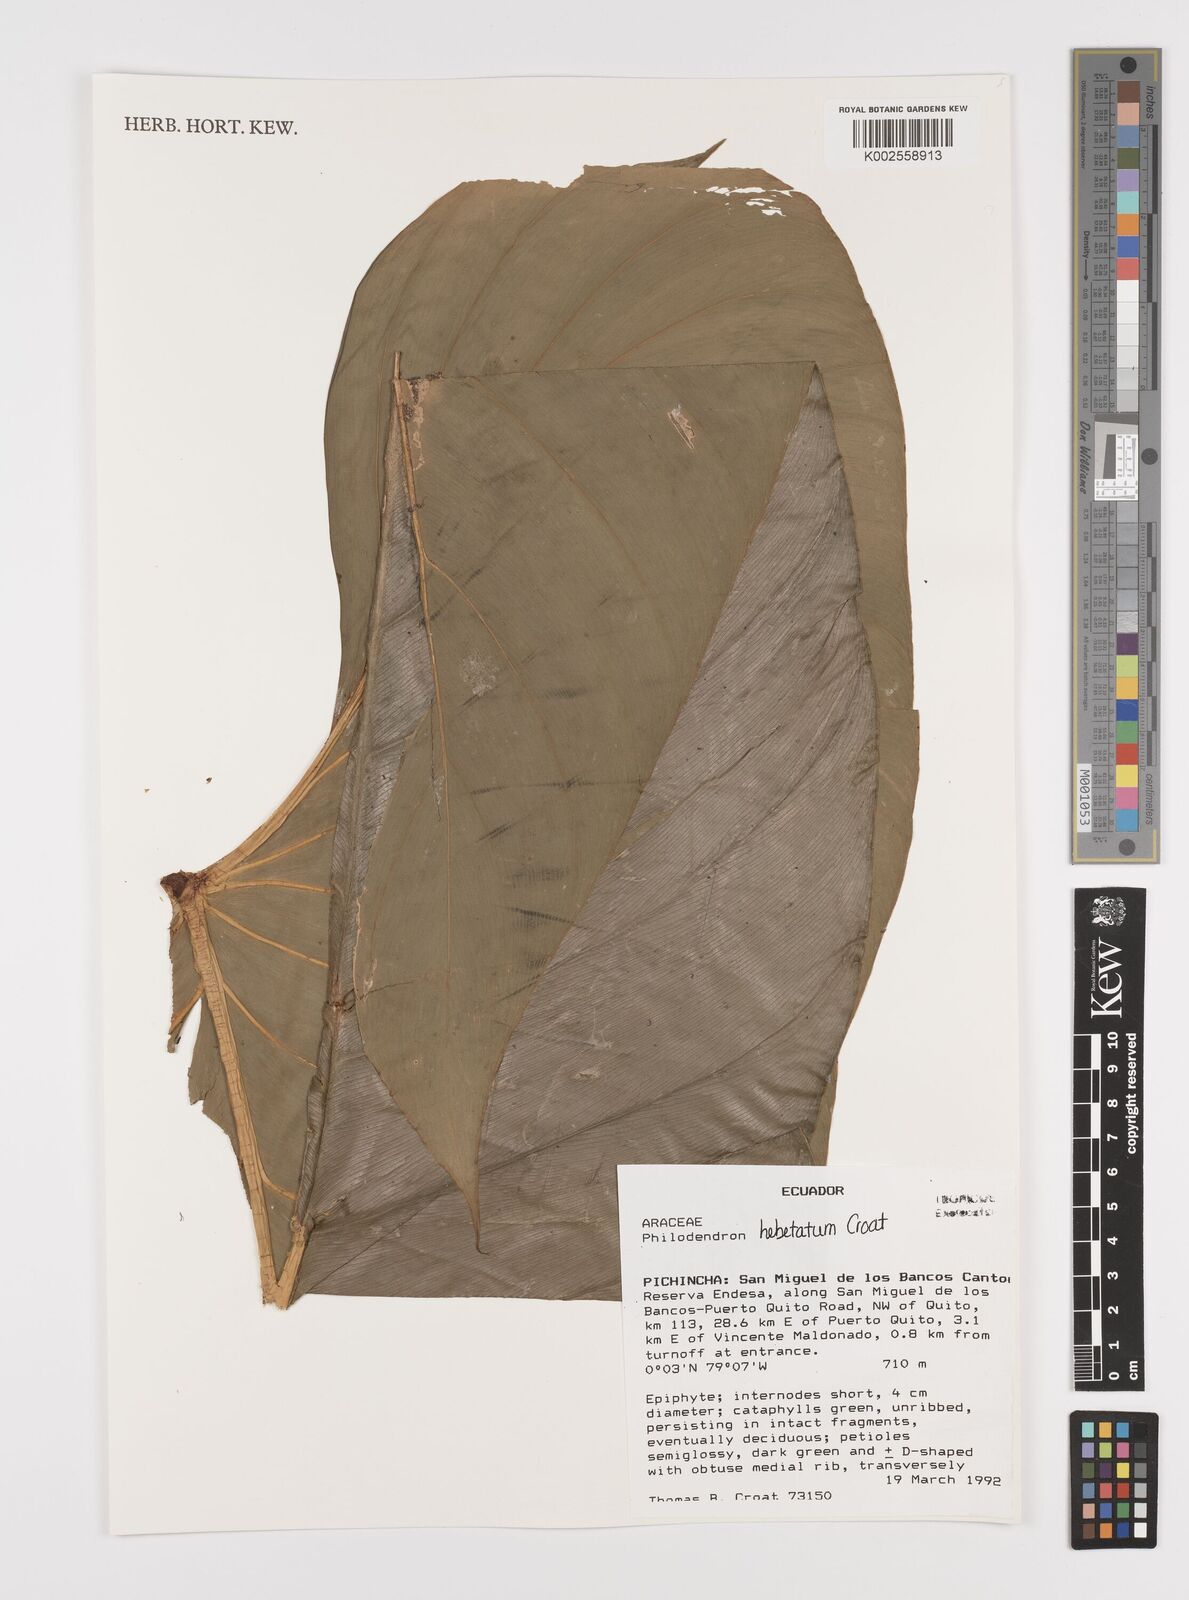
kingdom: Plantae
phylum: Tracheophyta
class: Liliopsida
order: Alismatales
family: Araceae
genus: Philodendron
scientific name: Philodendron hebetatum
